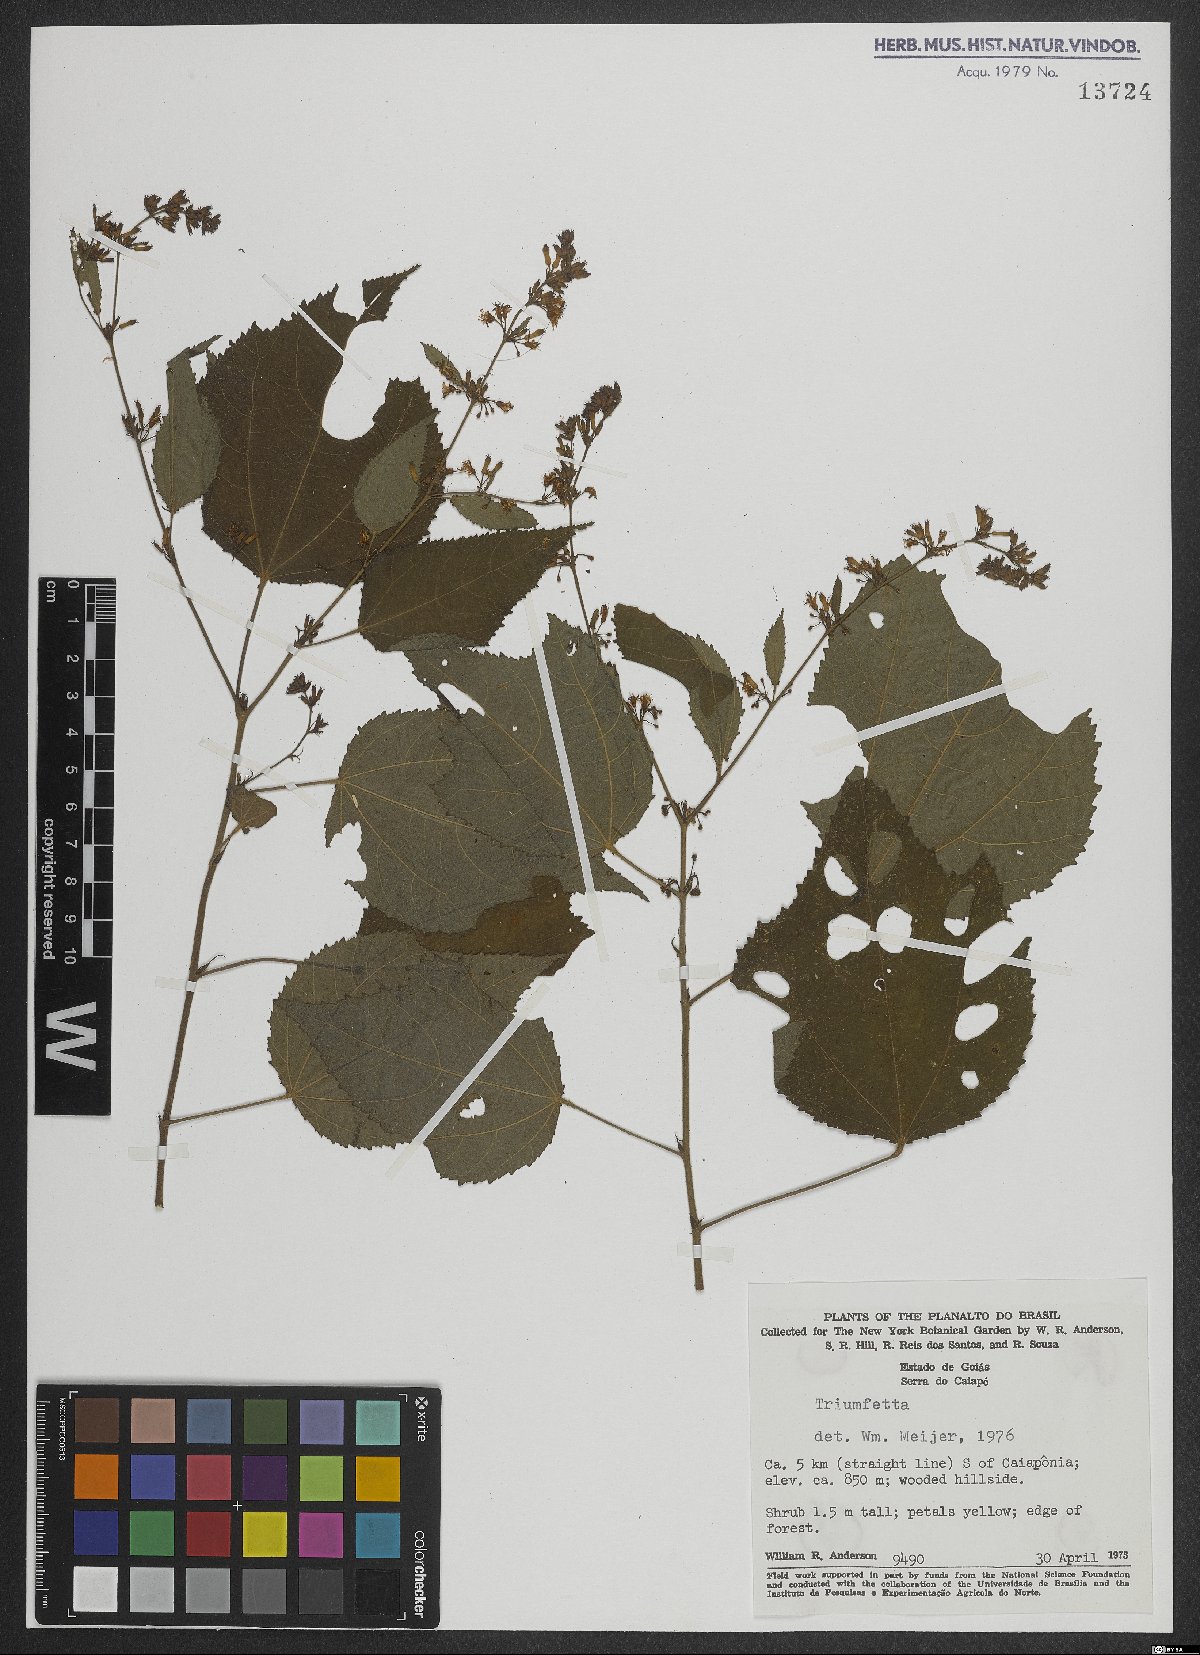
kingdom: Plantae
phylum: Tracheophyta
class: Magnoliopsida
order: Malvales
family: Malvaceae
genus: Triumfetta
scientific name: Triumfetta
